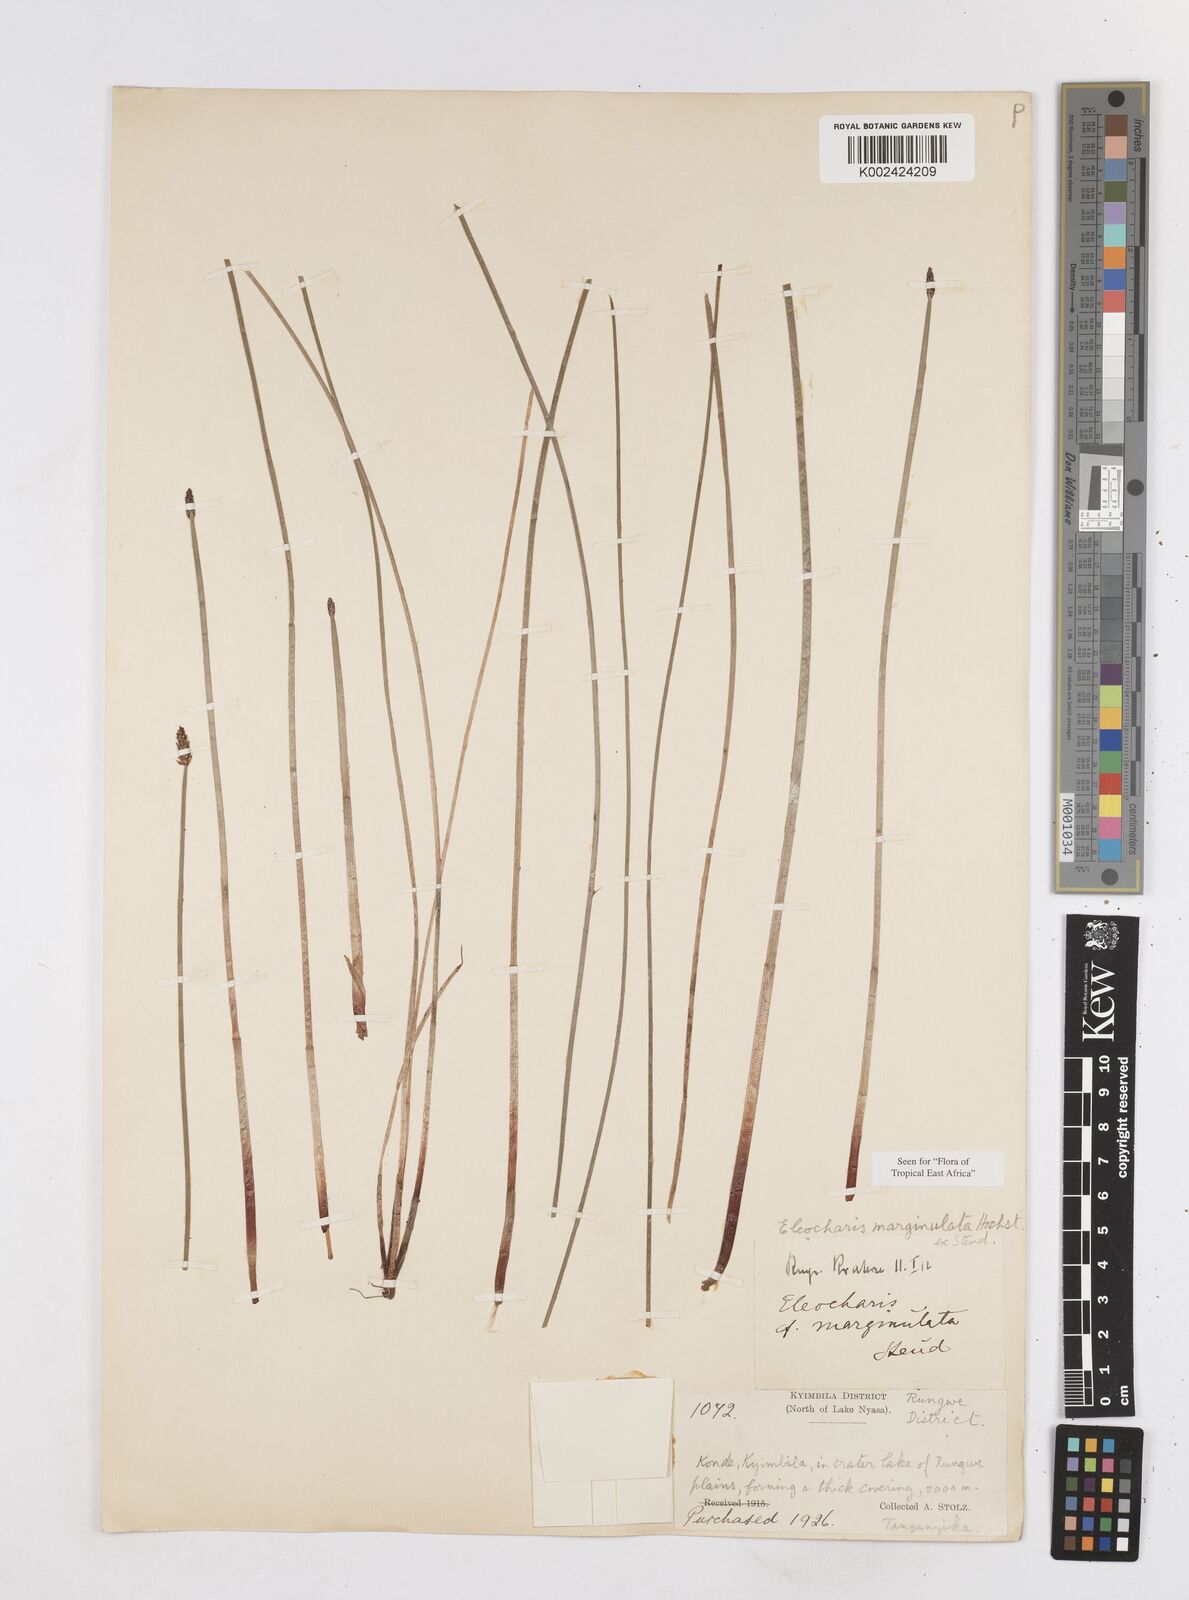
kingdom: Plantae
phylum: Tracheophyta
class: Liliopsida
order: Poales
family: Cyperaceae
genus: Eleocharis
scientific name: Eleocharis marginulata
